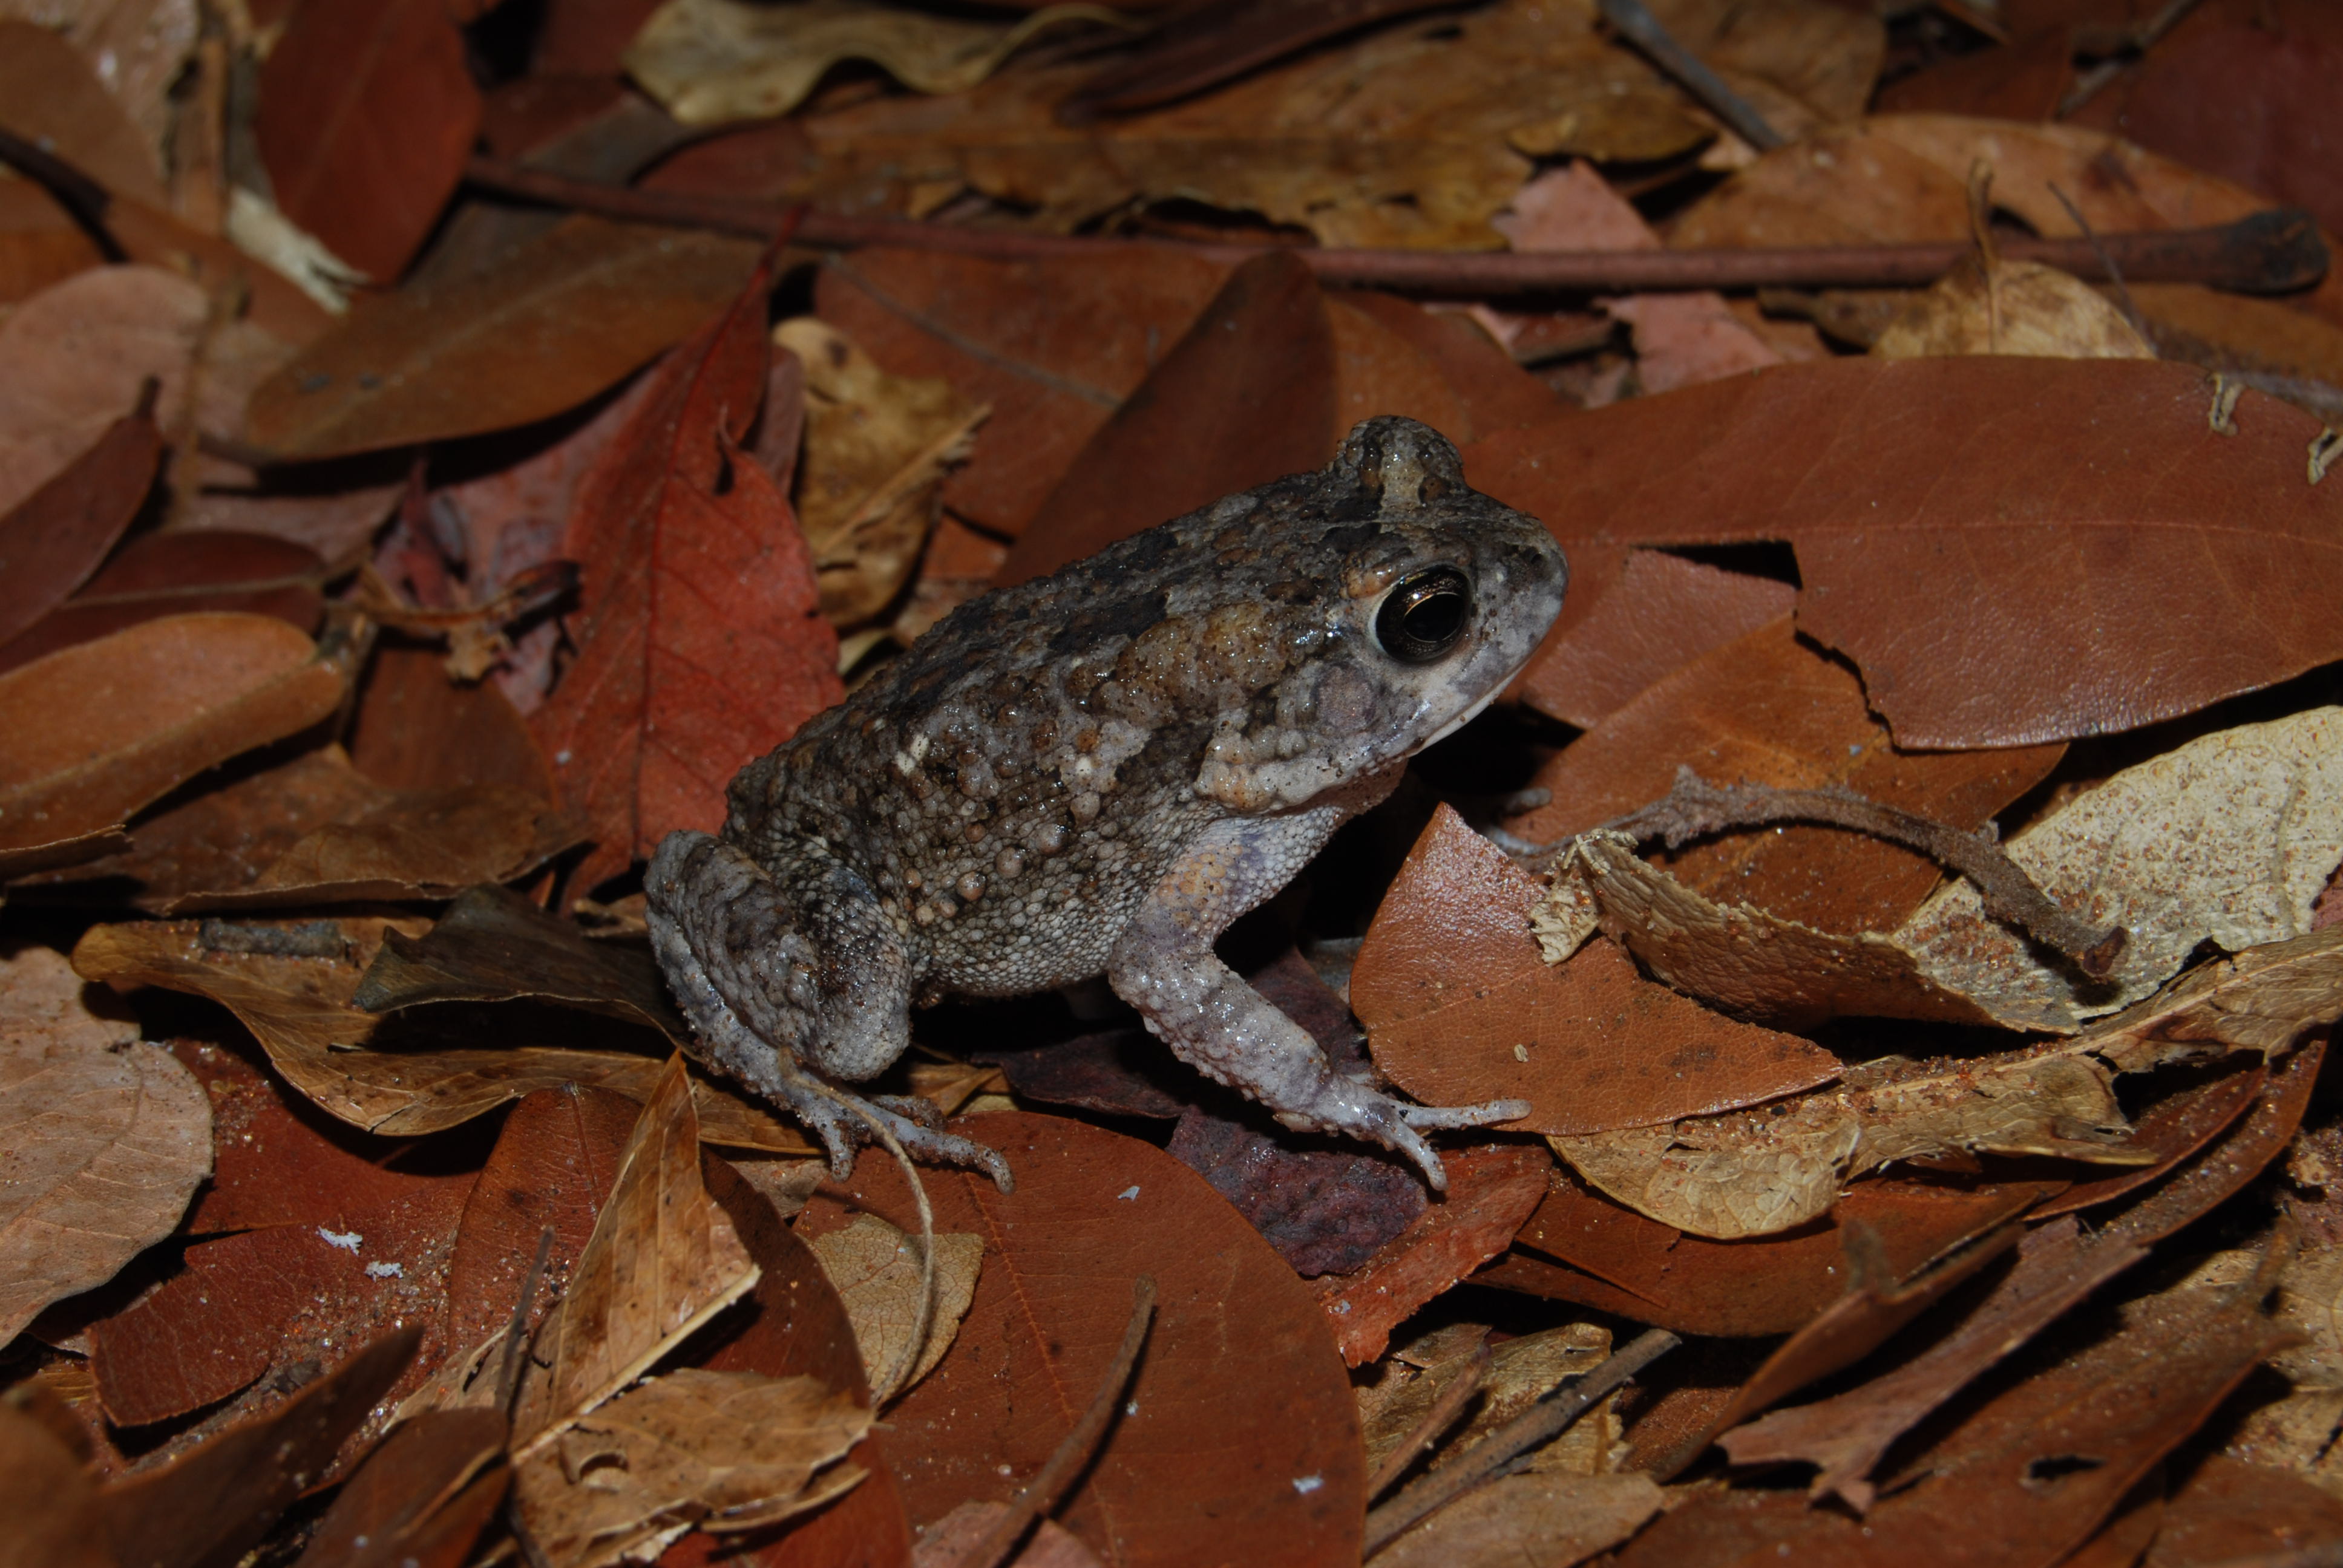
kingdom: Animalia
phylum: Chordata
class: Amphibia
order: Anura
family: Bufonidae
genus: Sclerophrys
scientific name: Sclerophrys maculata
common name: Hallowell's toad
